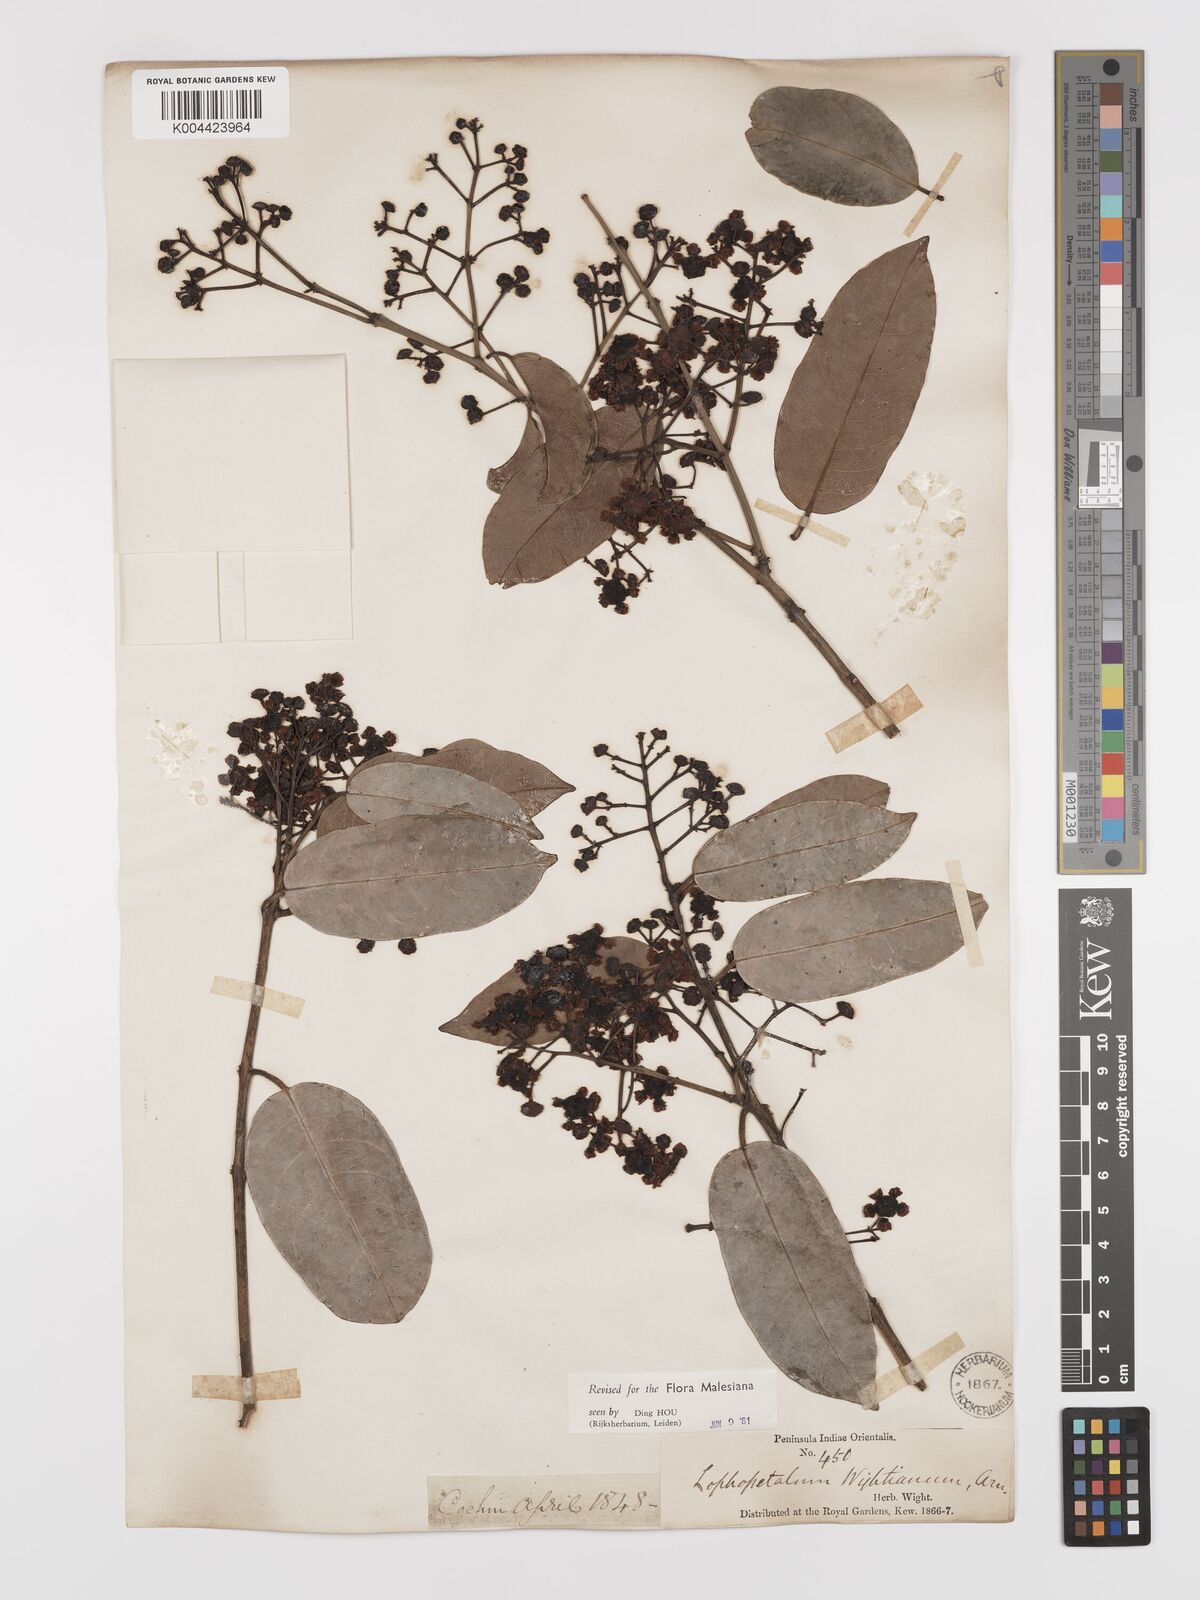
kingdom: Plantae
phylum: Tracheophyta
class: Magnoliopsida
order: Celastrales
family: Celastraceae
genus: Lophopetalum
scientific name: Lophopetalum wightianum
